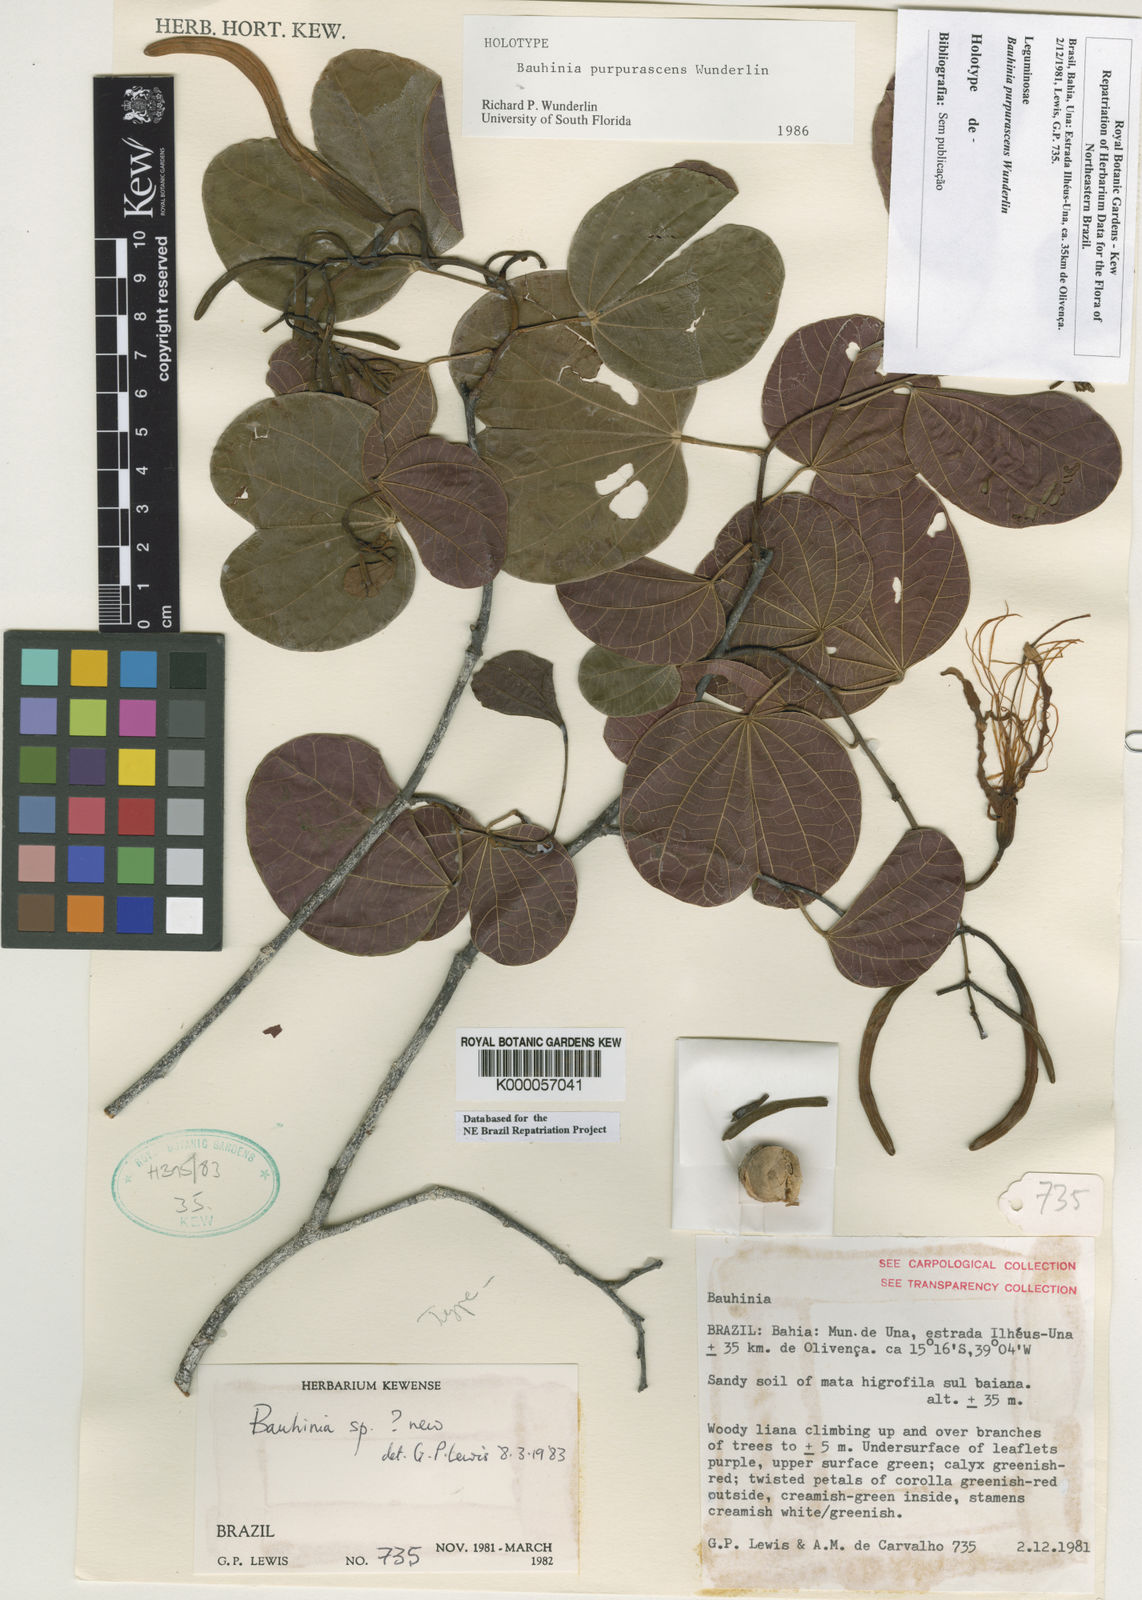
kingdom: Plantae
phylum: Tracheophyta
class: Magnoliopsida
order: Fabales
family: Fabaceae
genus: Bauhinia
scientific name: Bauhinia
